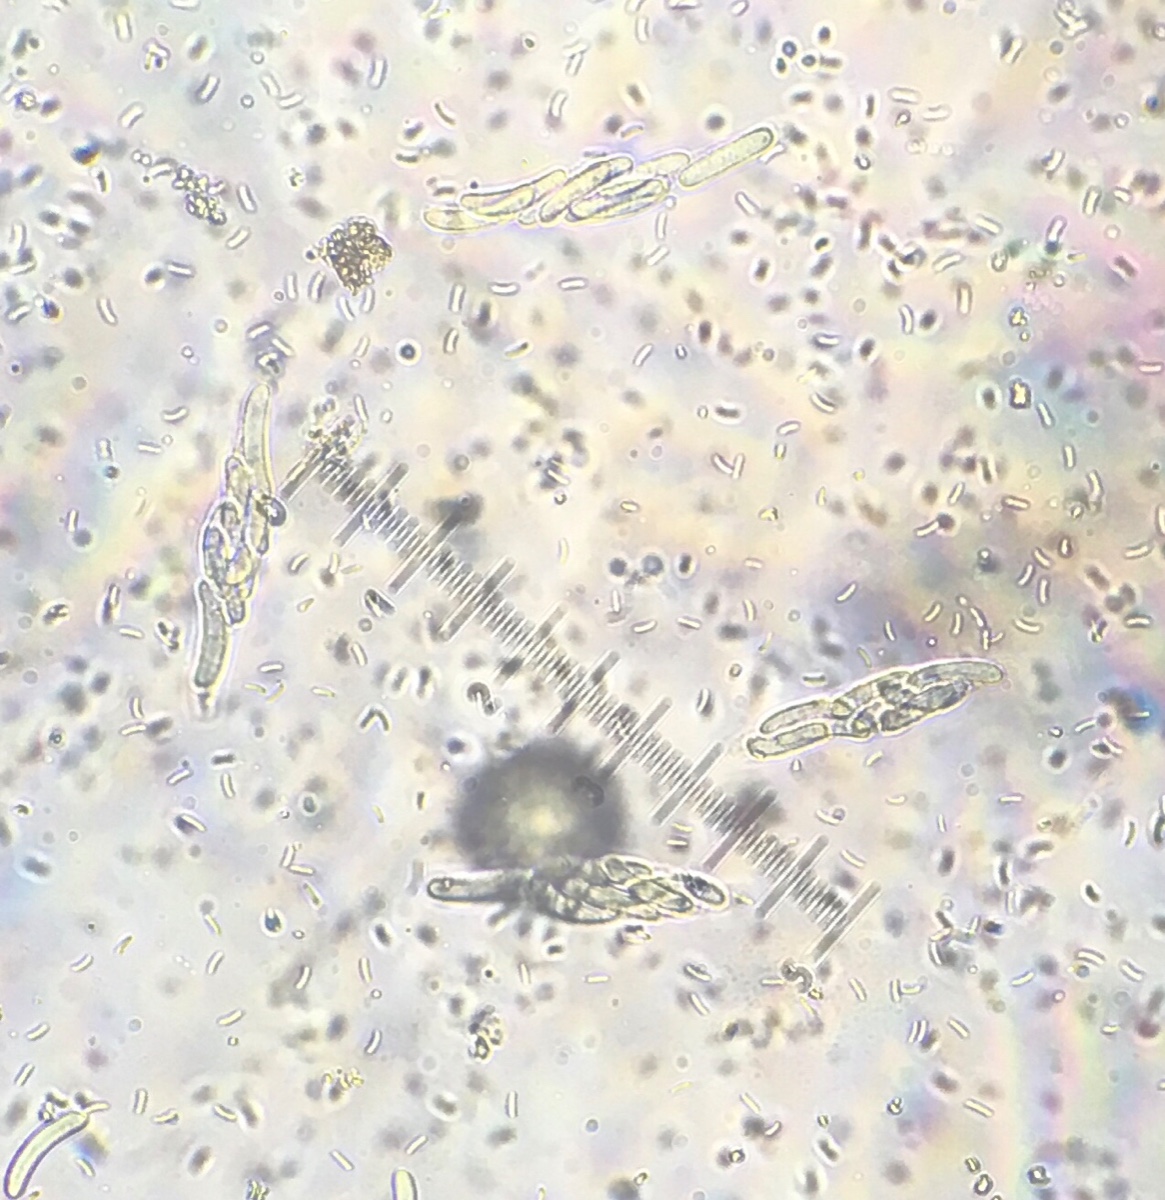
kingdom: Fungi
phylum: Ascomycota
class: Sordariomycetes
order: Diaporthales
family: Valsaceae
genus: Cytospora
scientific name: Cytospora populina
